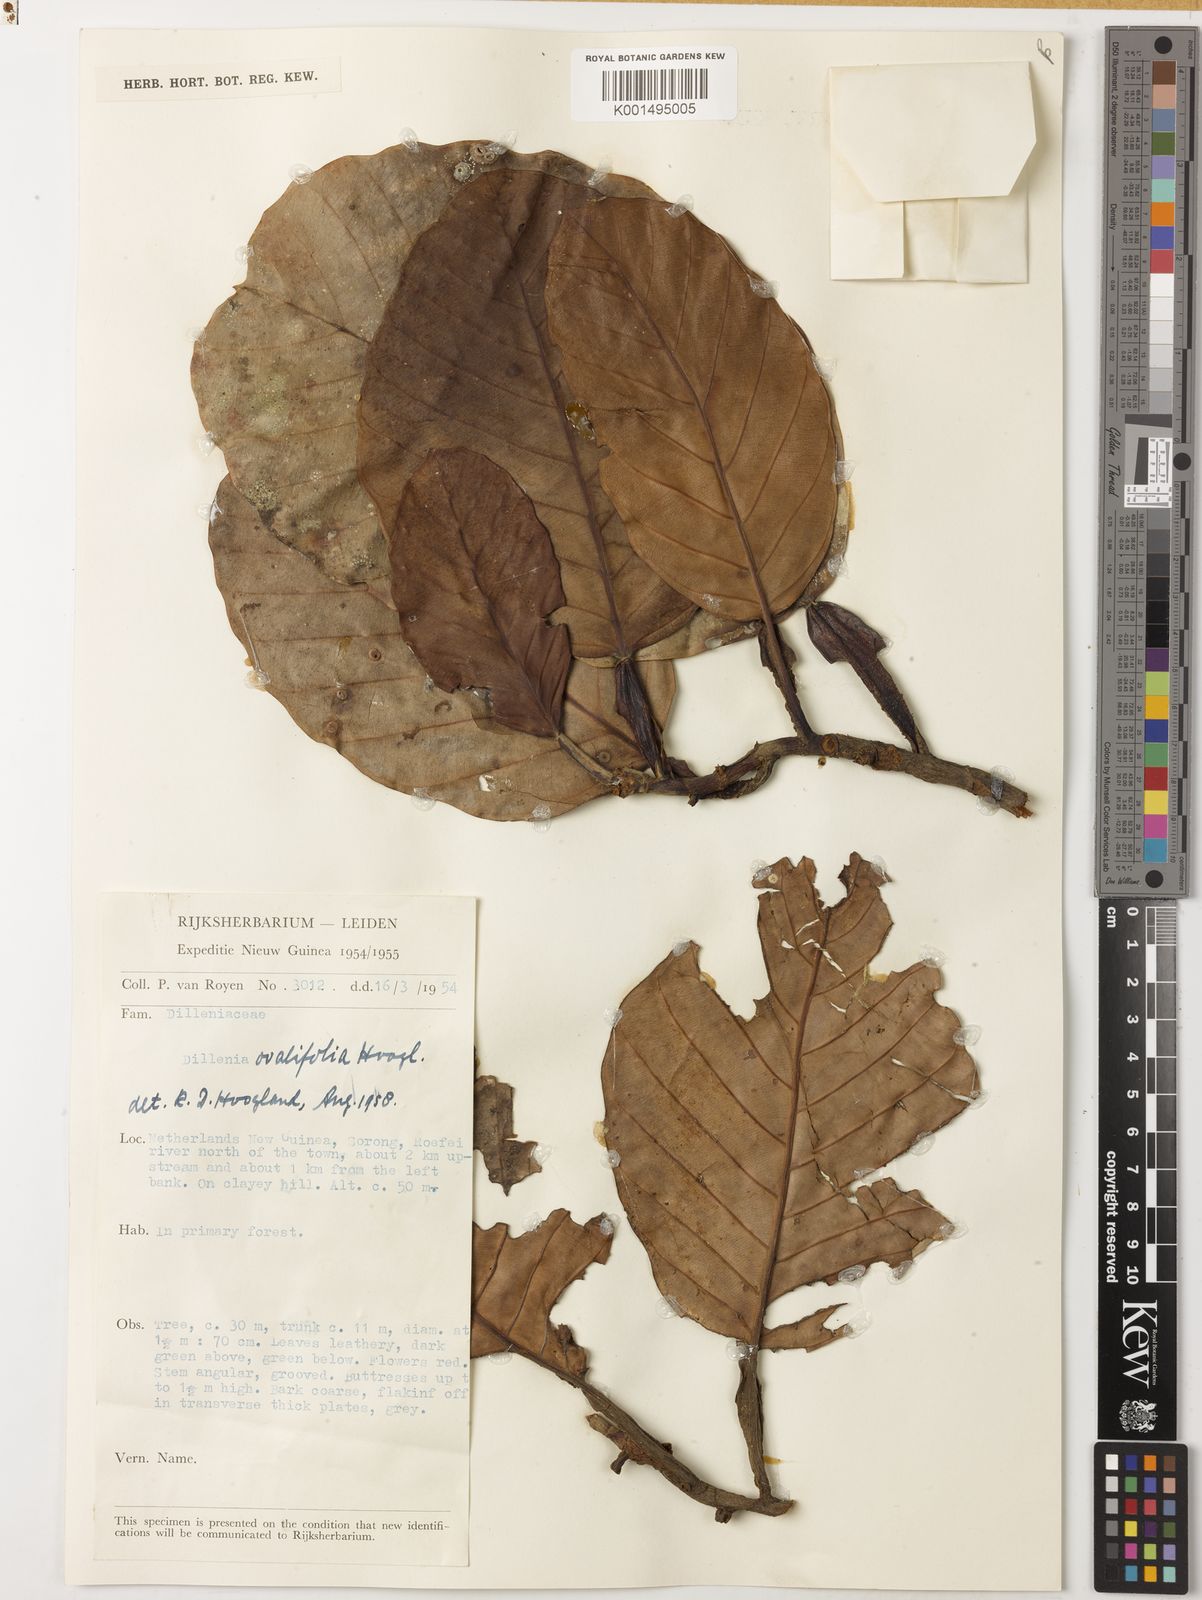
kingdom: Plantae
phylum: Tracheophyta
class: Magnoliopsida
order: Dilleniales
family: Dilleniaceae
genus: Dillenia
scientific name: Dillenia ovalifolia
